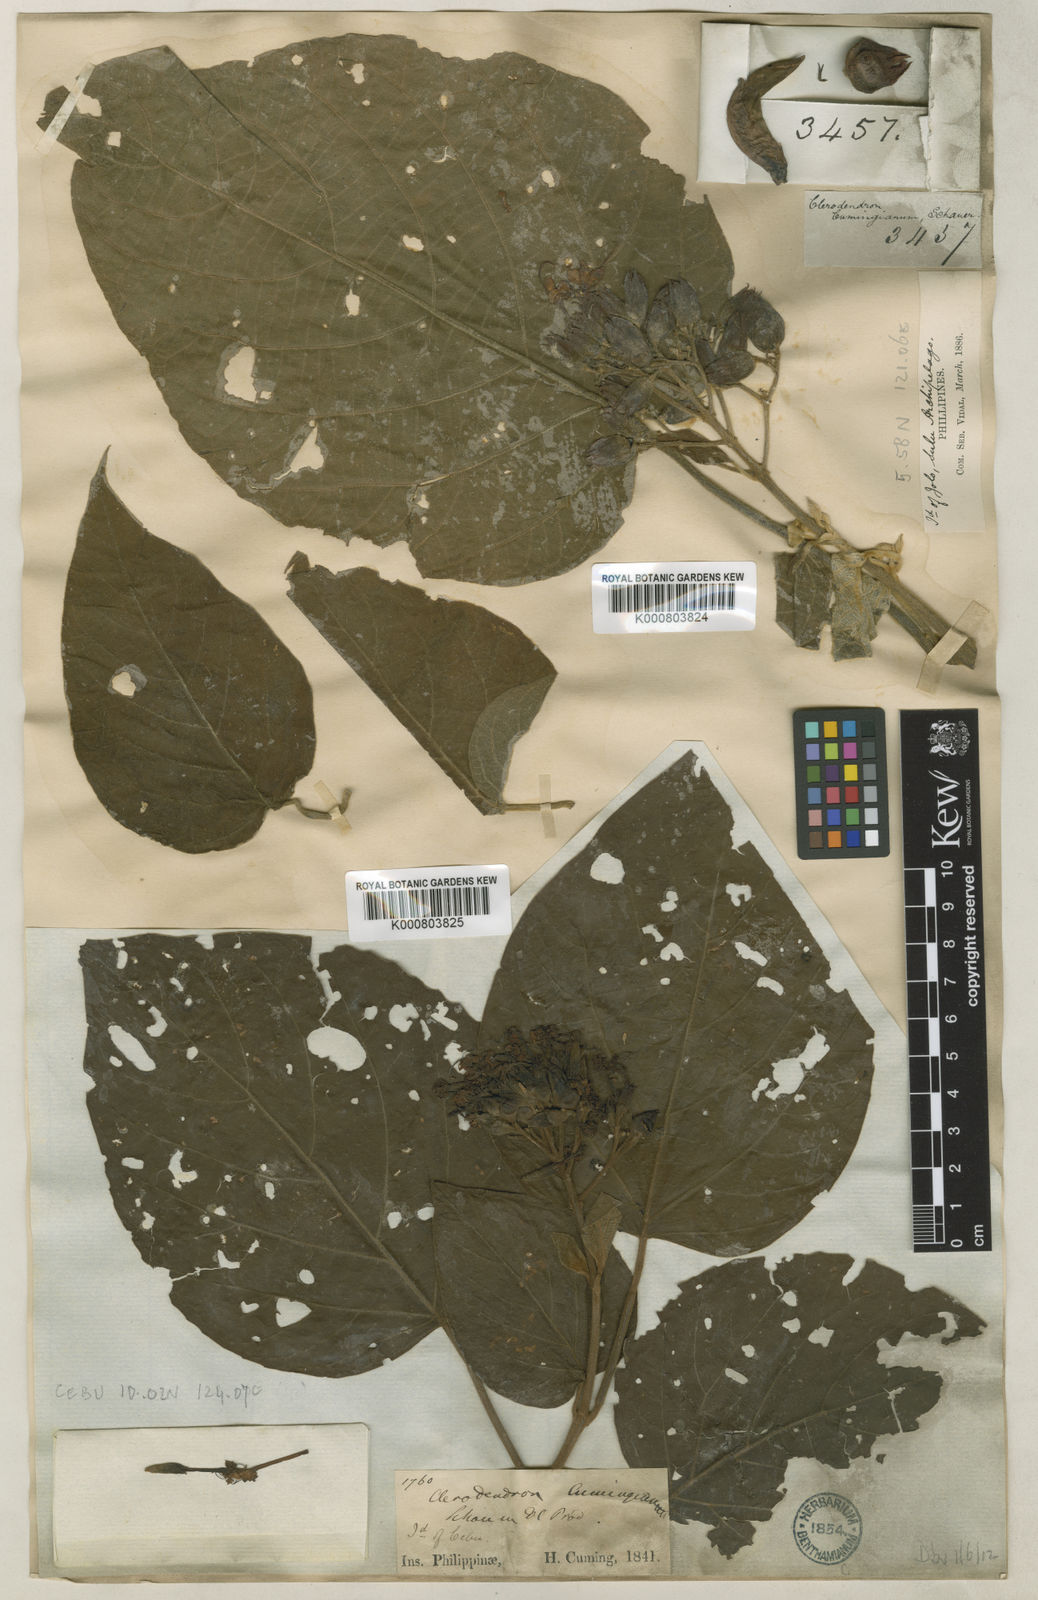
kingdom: Plantae
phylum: Tracheophyta
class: Magnoliopsida
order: Lamiales
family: Lamiaceae
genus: Clerodendrum
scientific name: Clerodendrum lanuginosum
